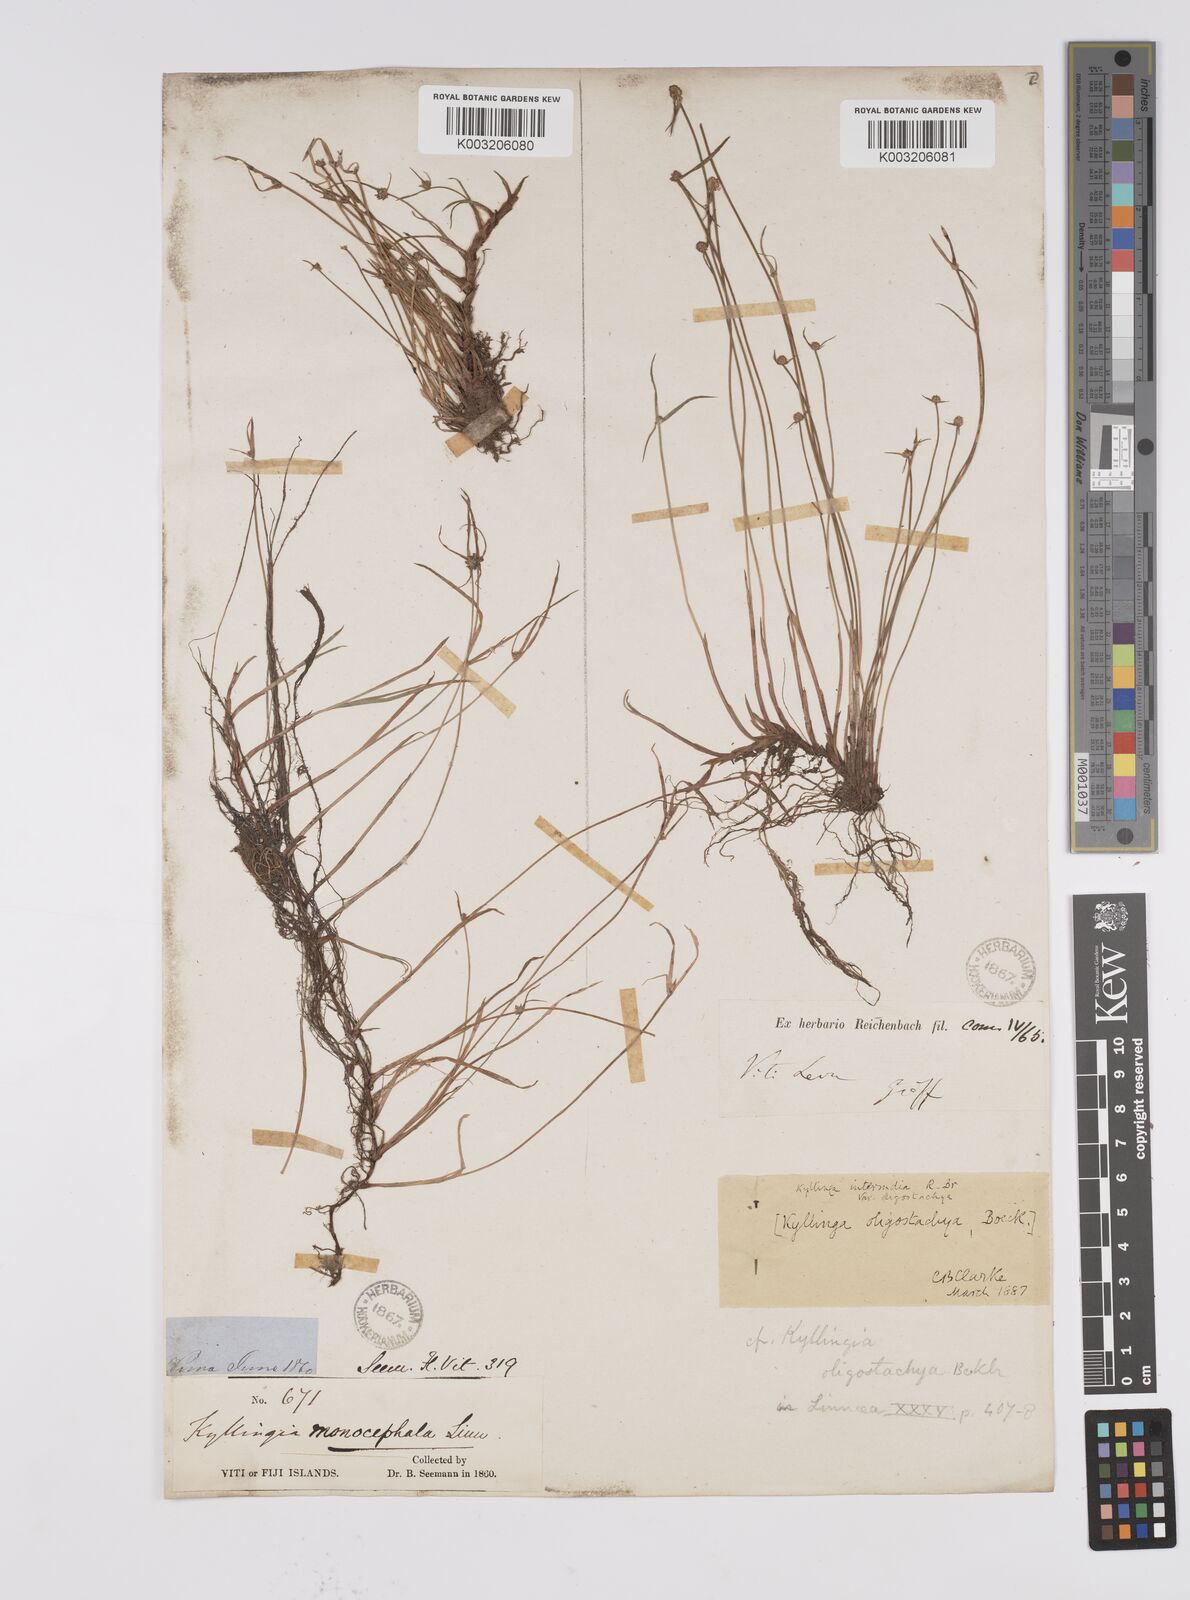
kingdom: Plantae
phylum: Tracheophyta
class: Liliopsida
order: Poales
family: Cyperaceae
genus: Cyperus
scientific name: Cyperus brevifolius
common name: Globe kyllinga
